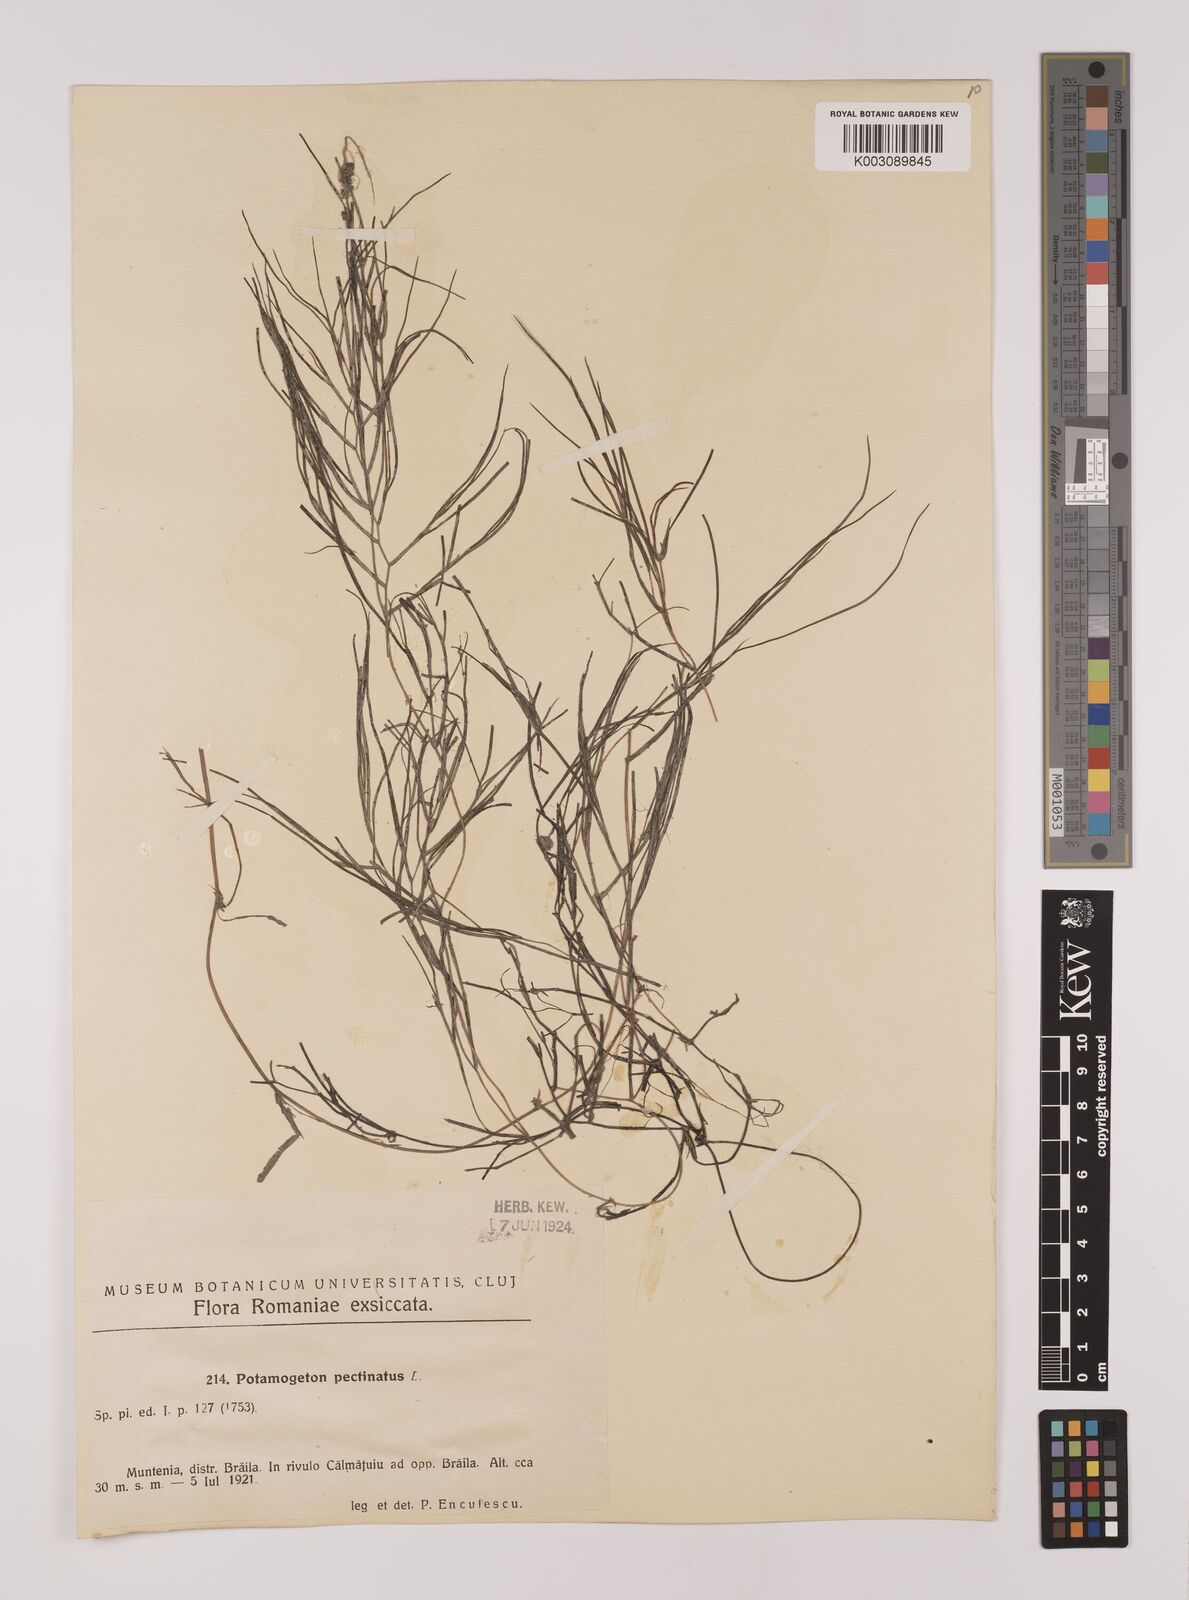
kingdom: Plantae
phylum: Tracheophyta
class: Liliopsida
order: Alismatales
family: Potamogetonaceae
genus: Stuckenia
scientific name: Stuckenia pectinata
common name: Sago pondweed
